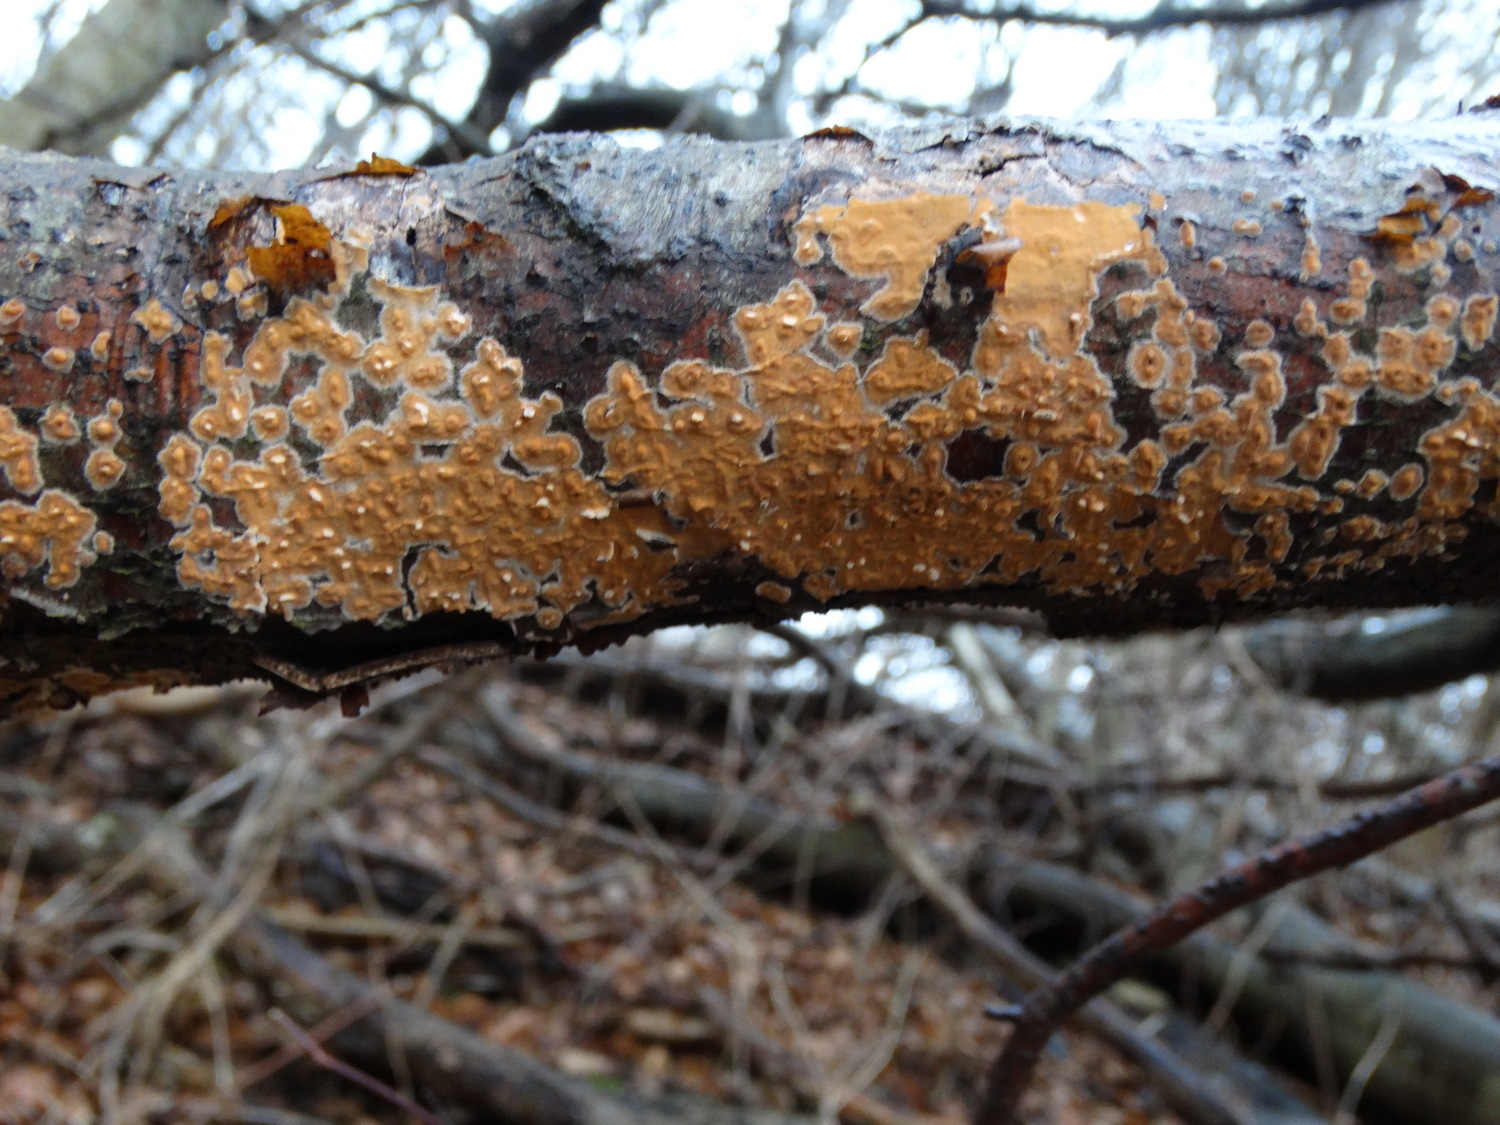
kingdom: Fungi
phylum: Basidiomycota
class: Agaricomycetes
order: Russulales
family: Peniophoraceae
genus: Peniophora
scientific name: Peniophora incarnata
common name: laksefarvet voksskind
